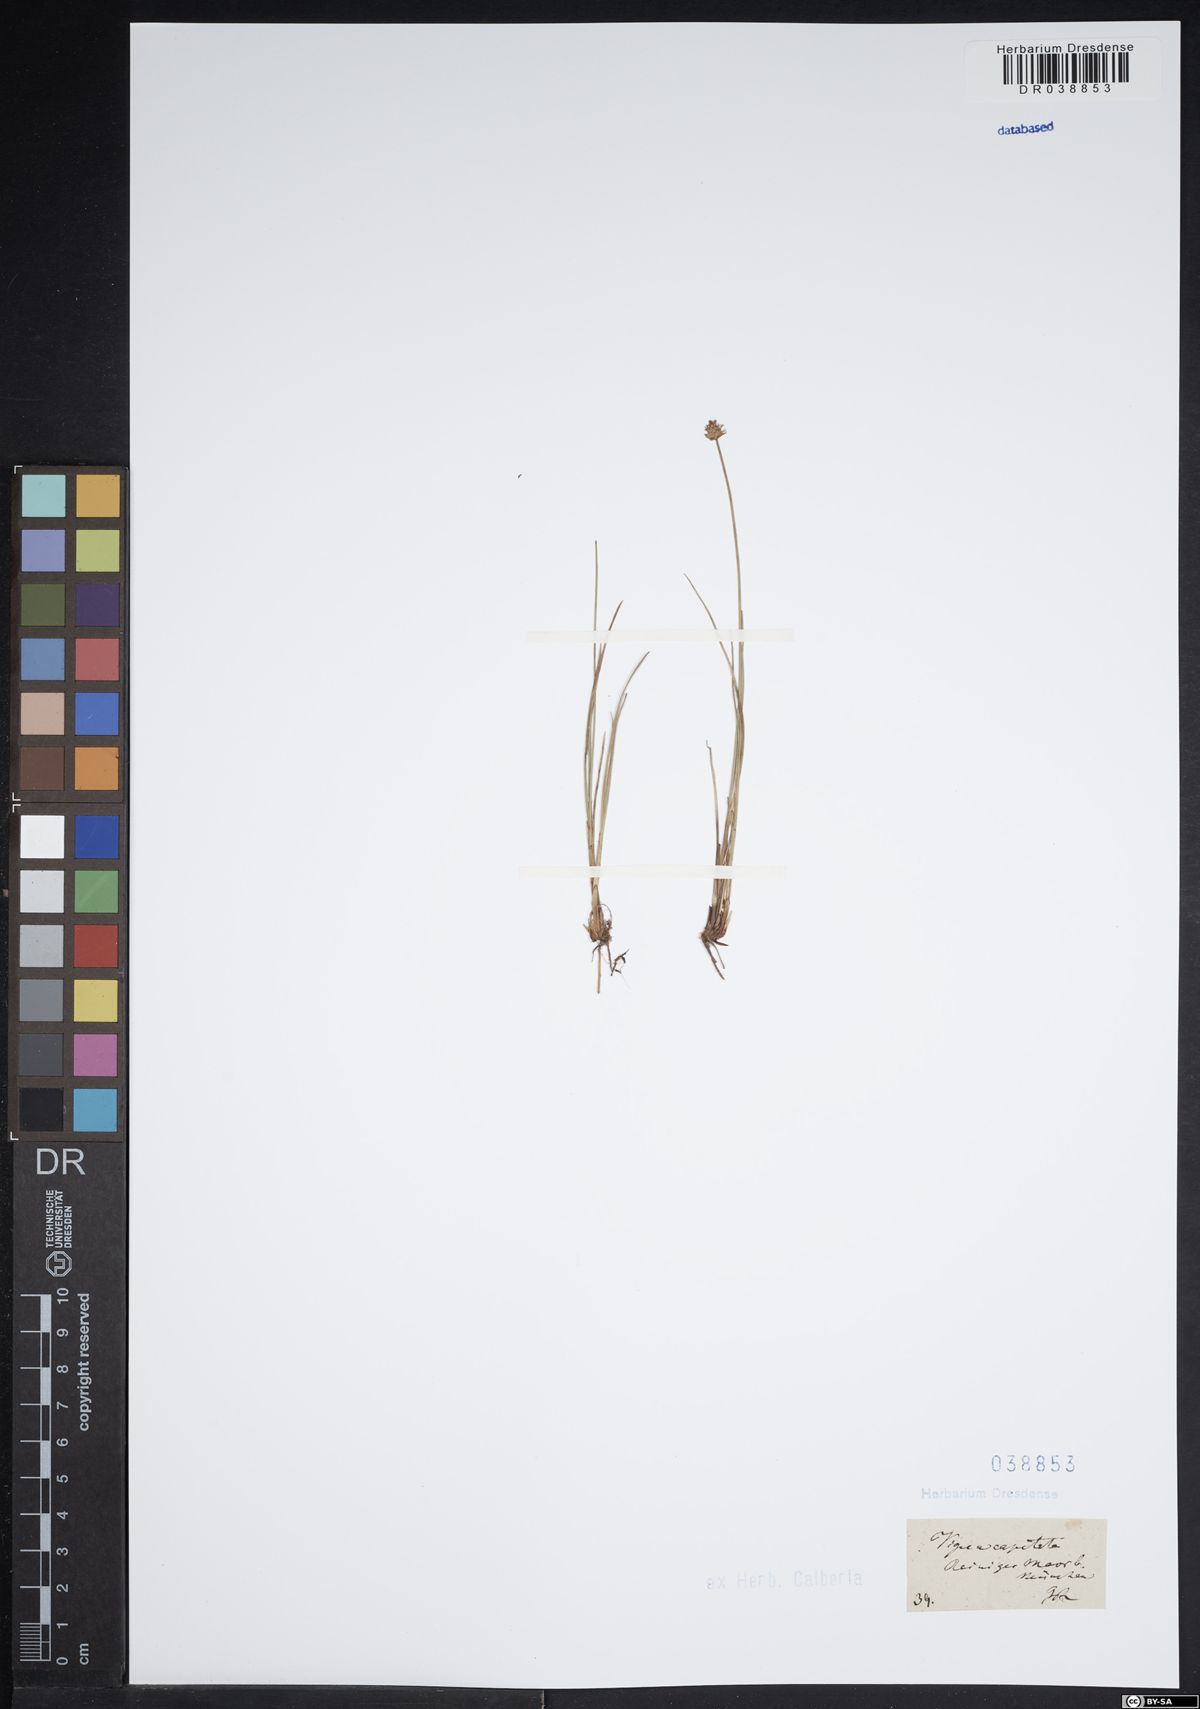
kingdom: Plantae
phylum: Tracheophyta
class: Liliopsida
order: Poales
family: Cyperaceae
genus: Carex
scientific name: Carex capitata
